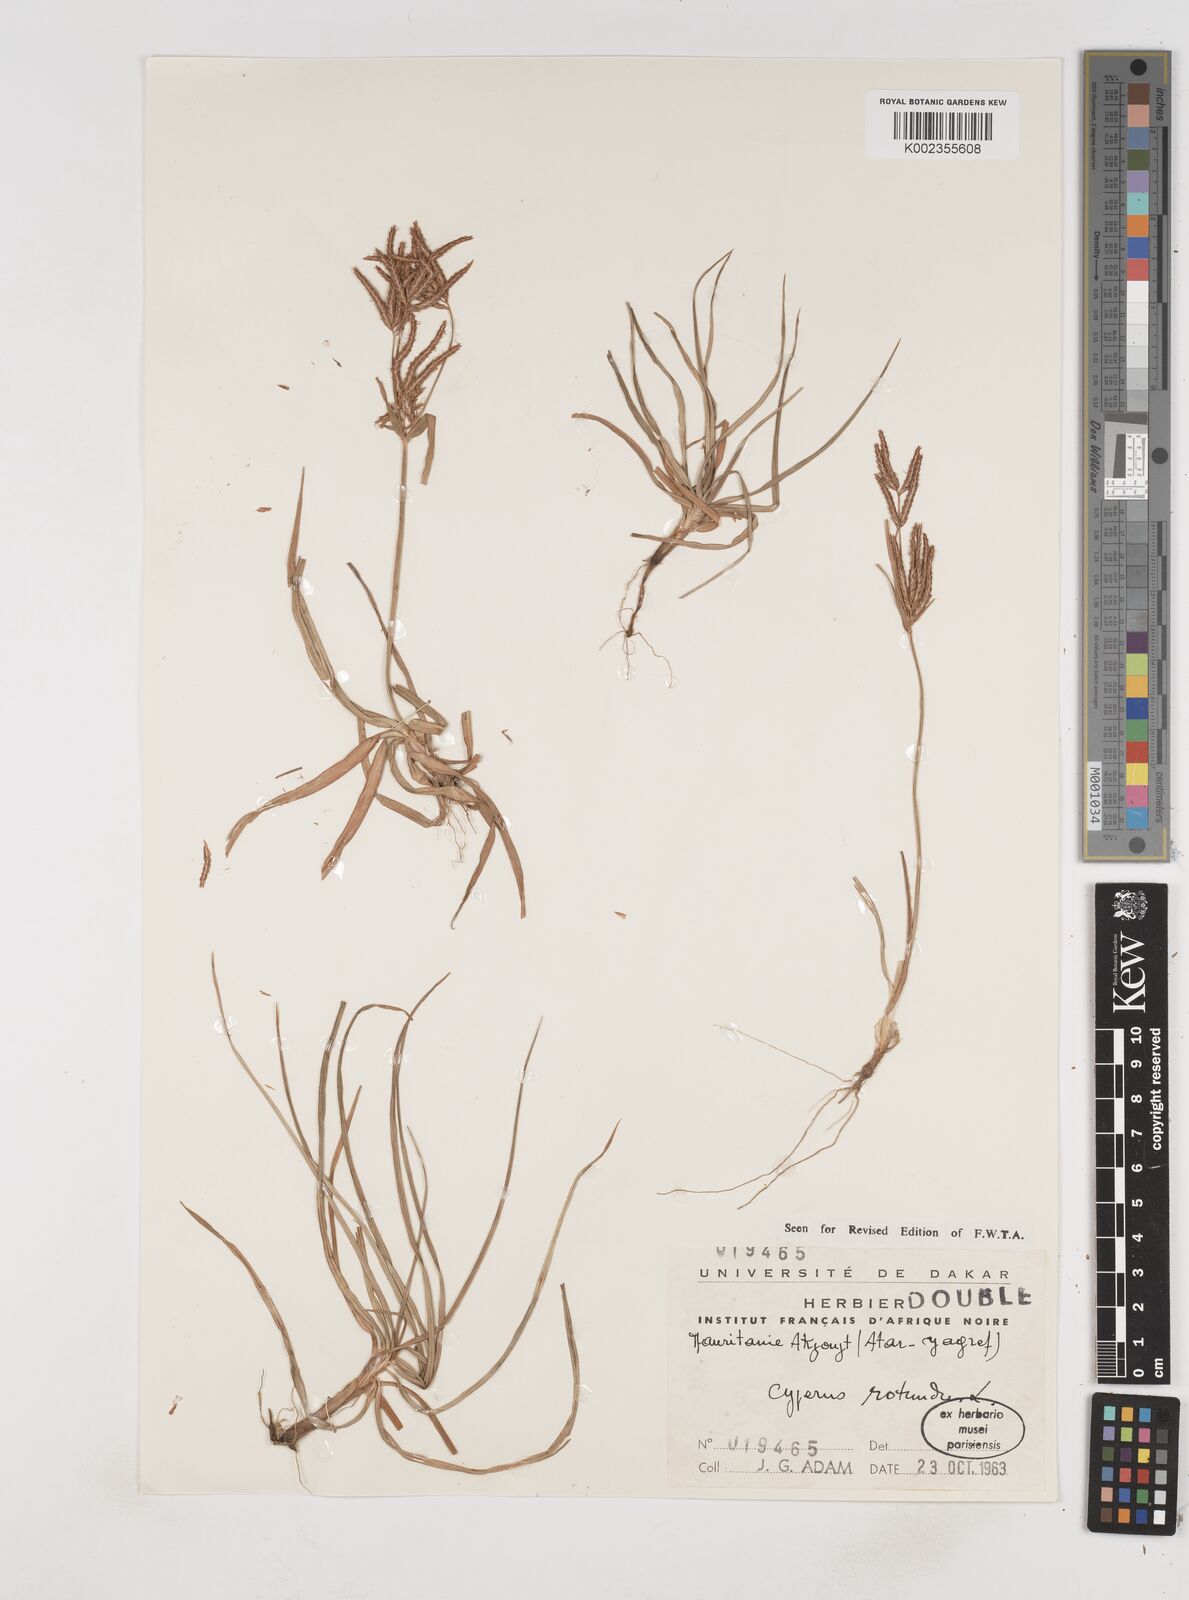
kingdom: Plantae
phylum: Tracheophyta
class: Liliopsida
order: Poales
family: Cyperaceae
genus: Cyperus
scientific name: Cyperus rotundus
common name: Nutgrass
